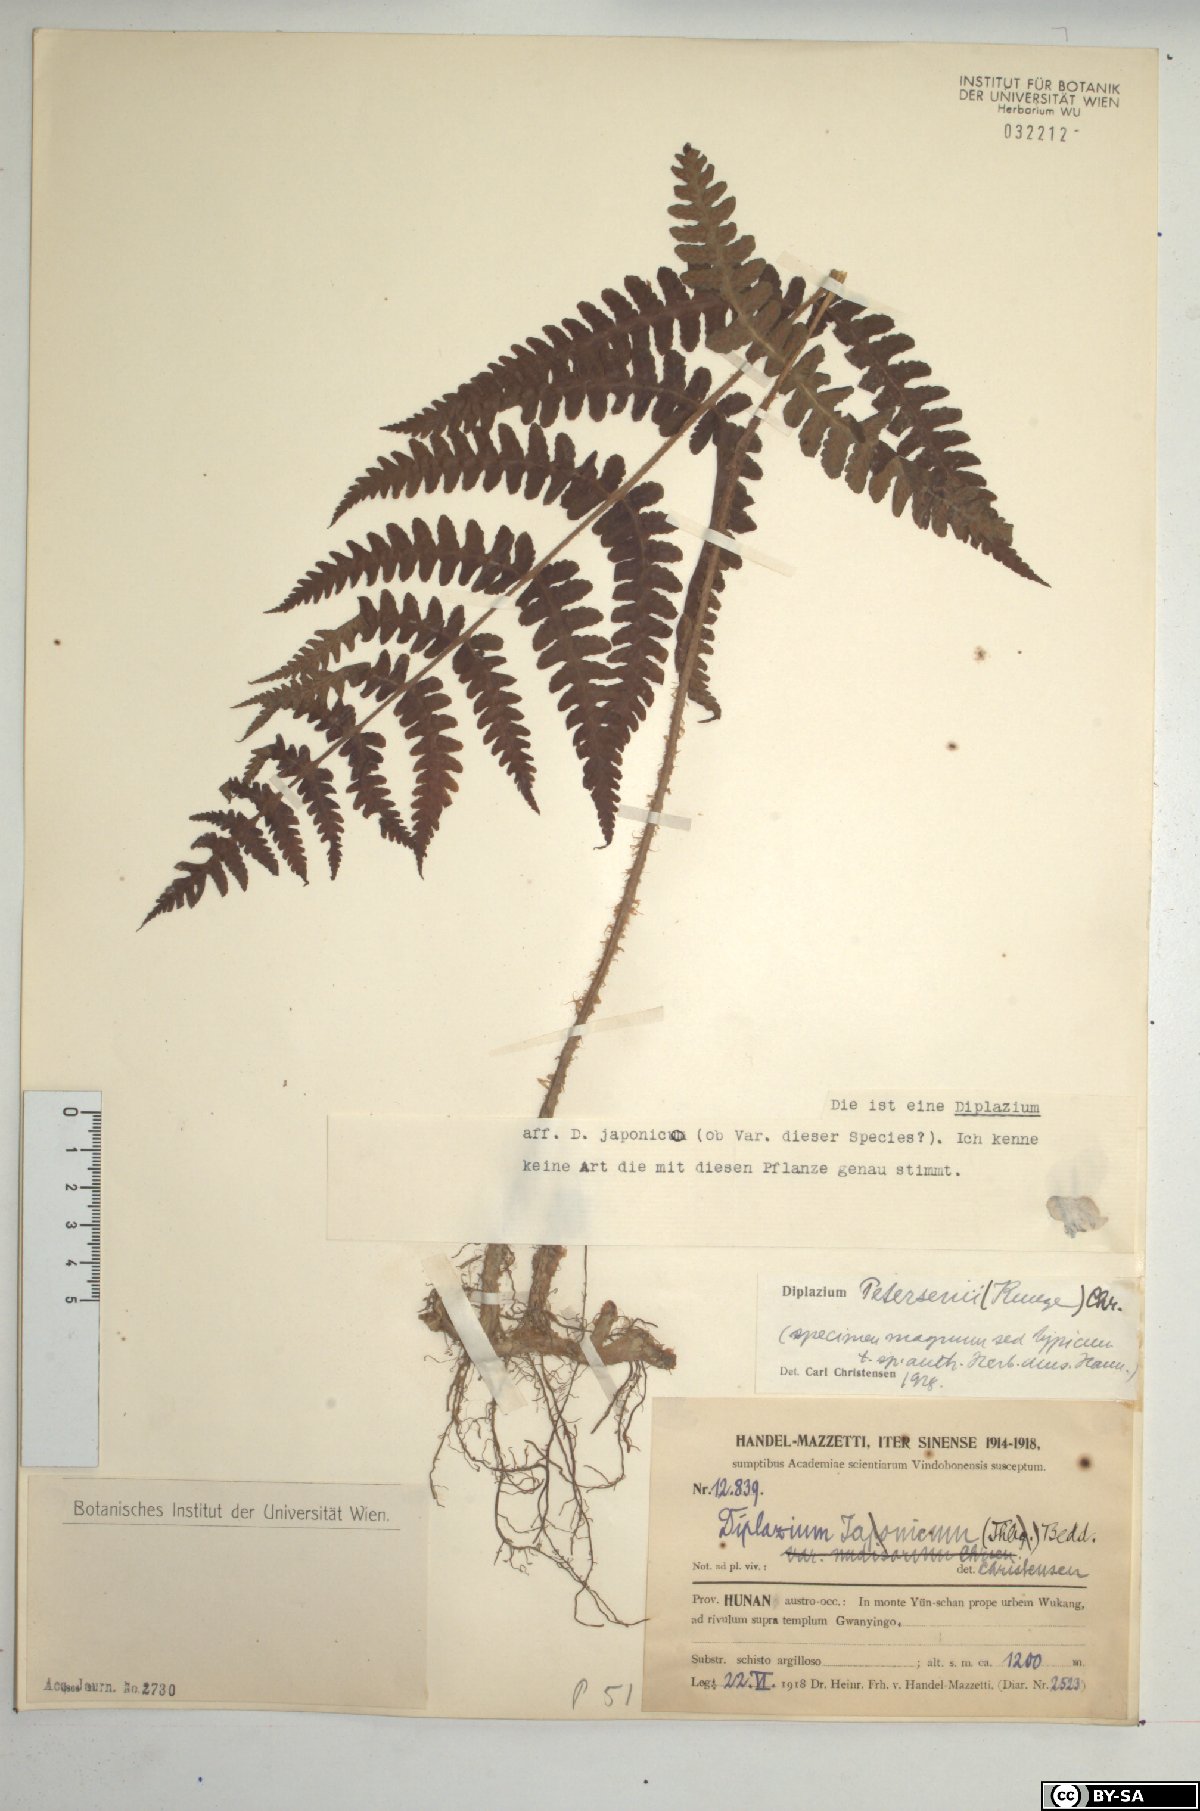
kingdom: Plantae
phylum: Tracheophyta
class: Polypodiopsida
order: Polypodiales
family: Athyriaceae
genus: Deparia
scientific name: Deparia petersenii
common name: Japanese false spleenwort
